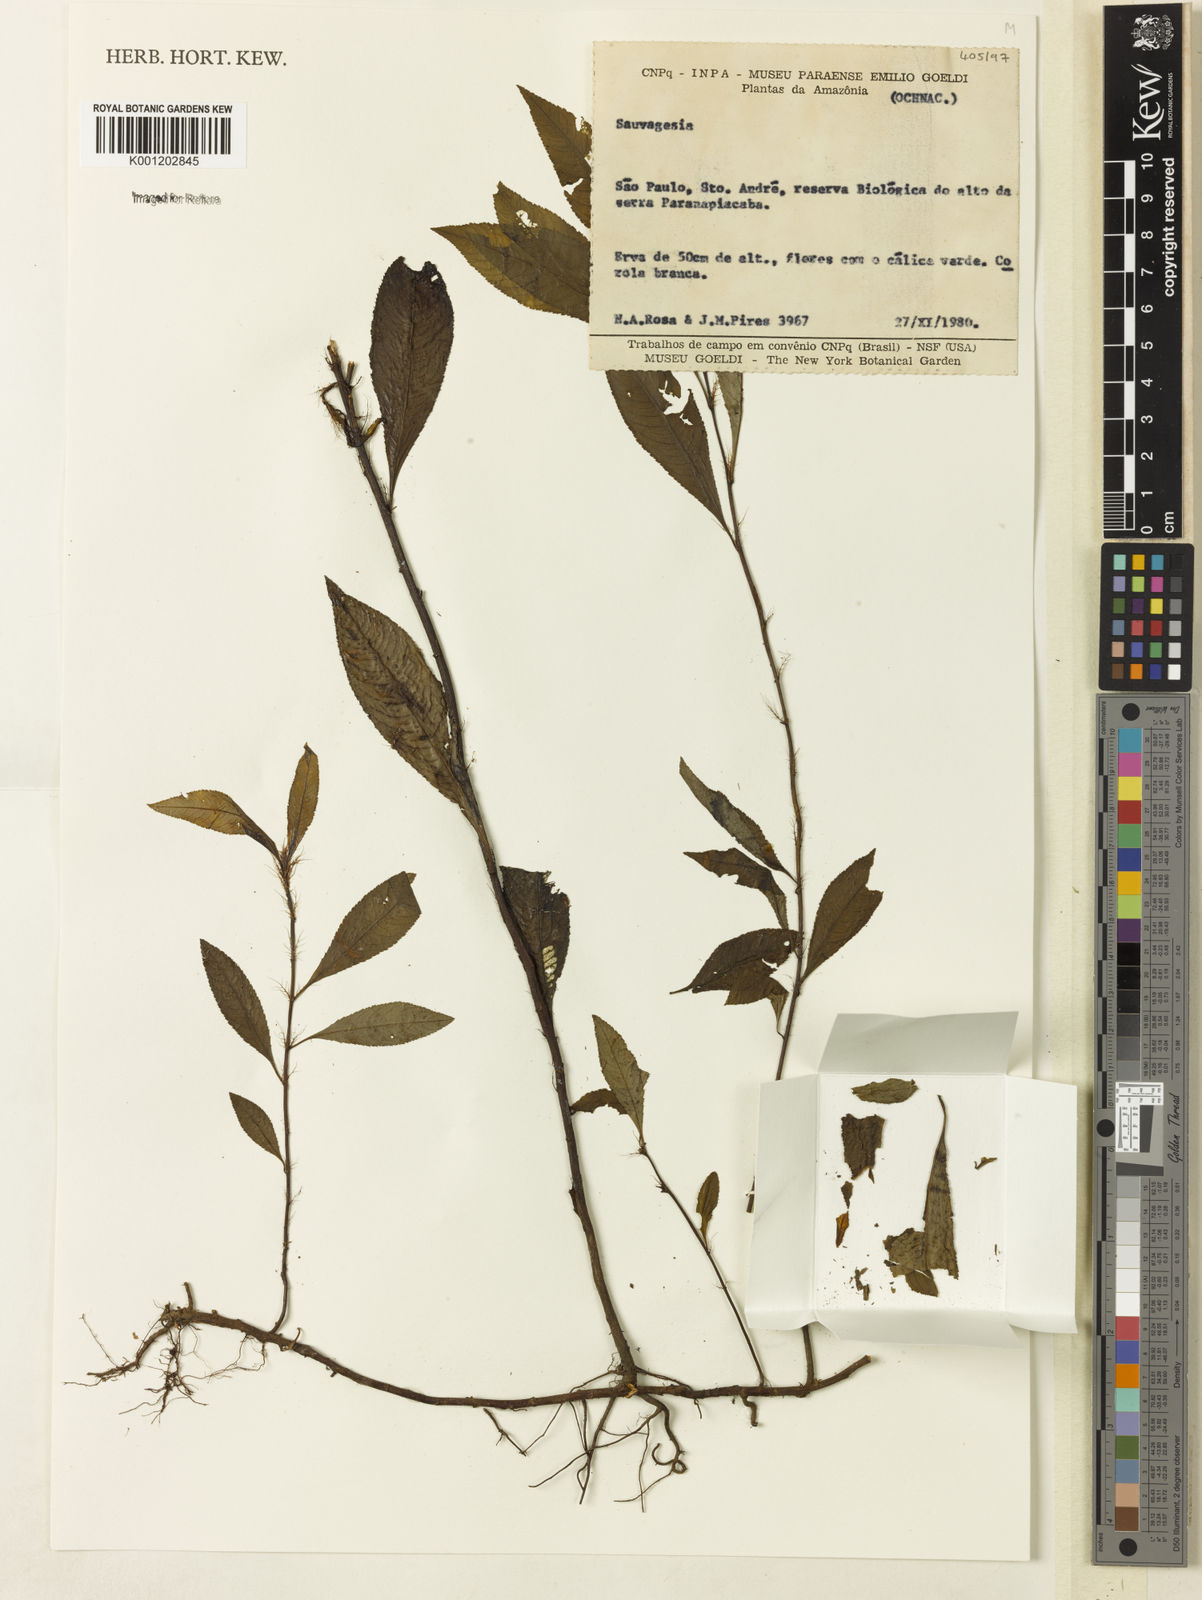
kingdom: Plantae
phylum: Tracheophyta
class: Magnoliopsida
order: Malpighiales
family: Ochnaceae
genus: Sauvagesia
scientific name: Sauvagesia vellozoi
